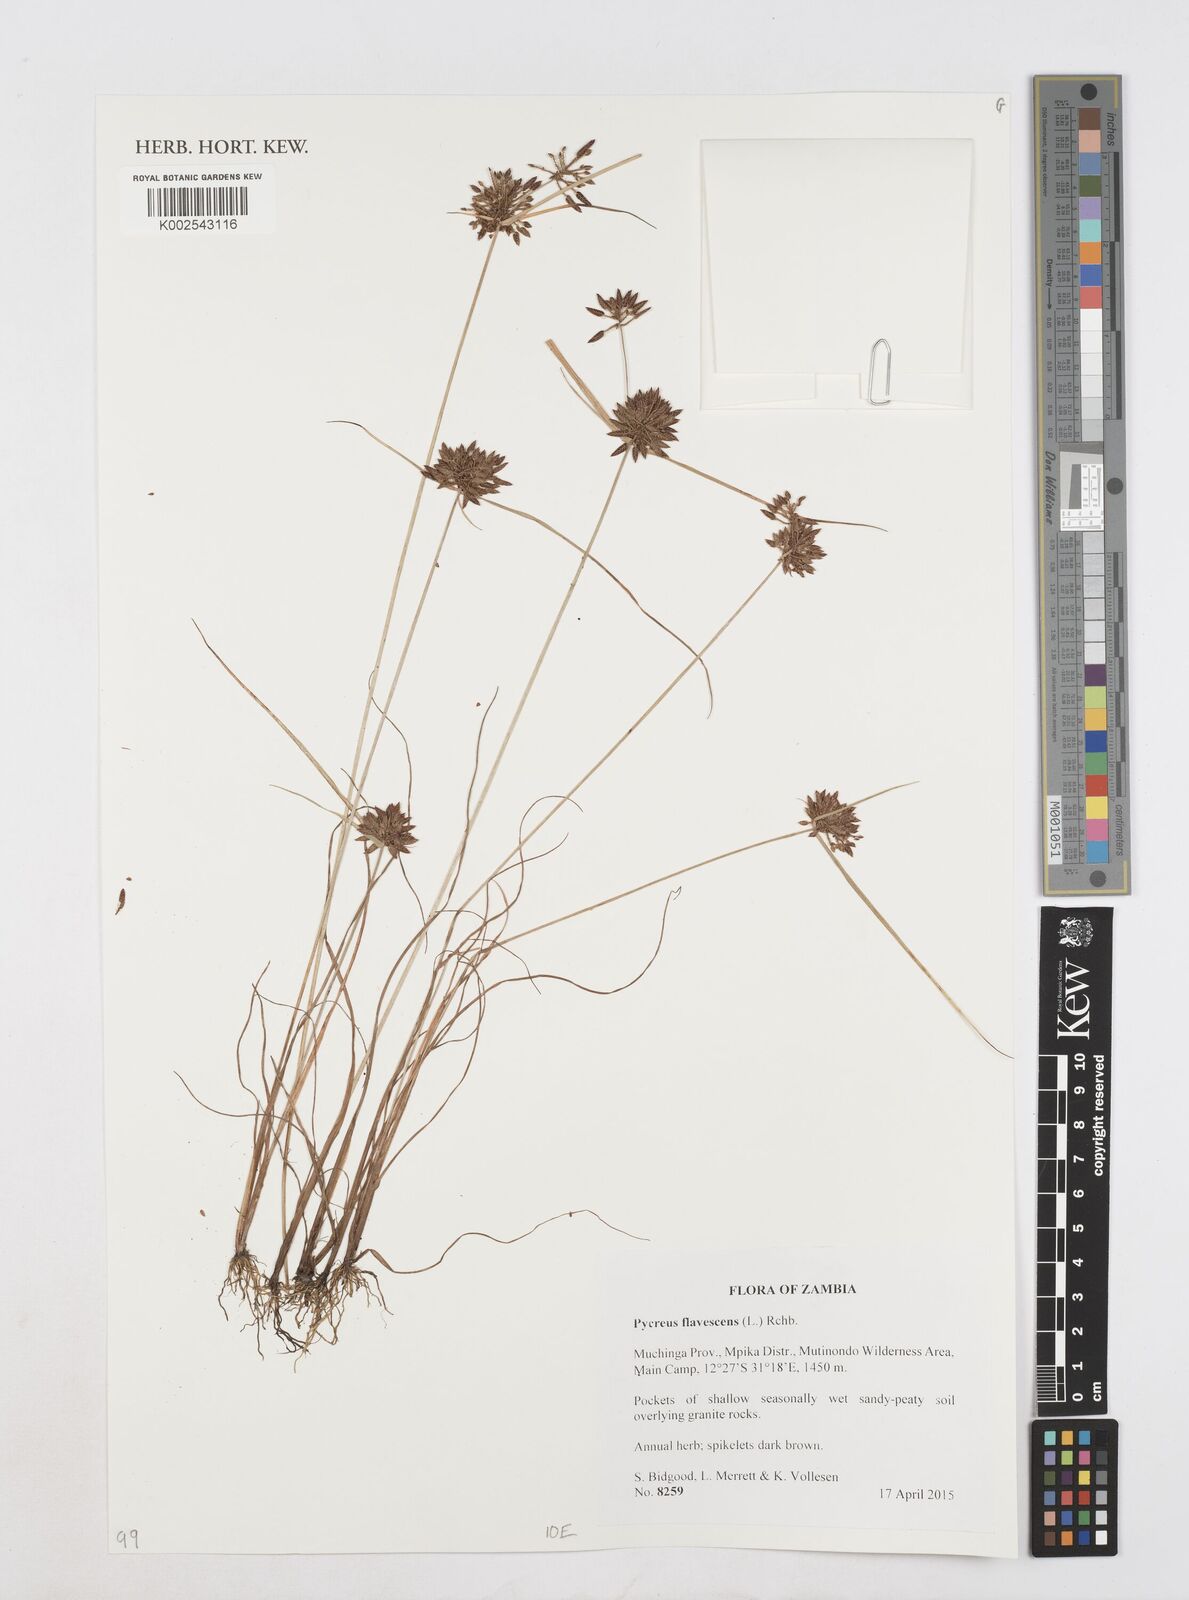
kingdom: Plantae
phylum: Tracheophyta
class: Liliopsida
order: Poales
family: Cyperaceae
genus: Cyperus
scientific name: Cyperus flavescens
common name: Yellow galingale
